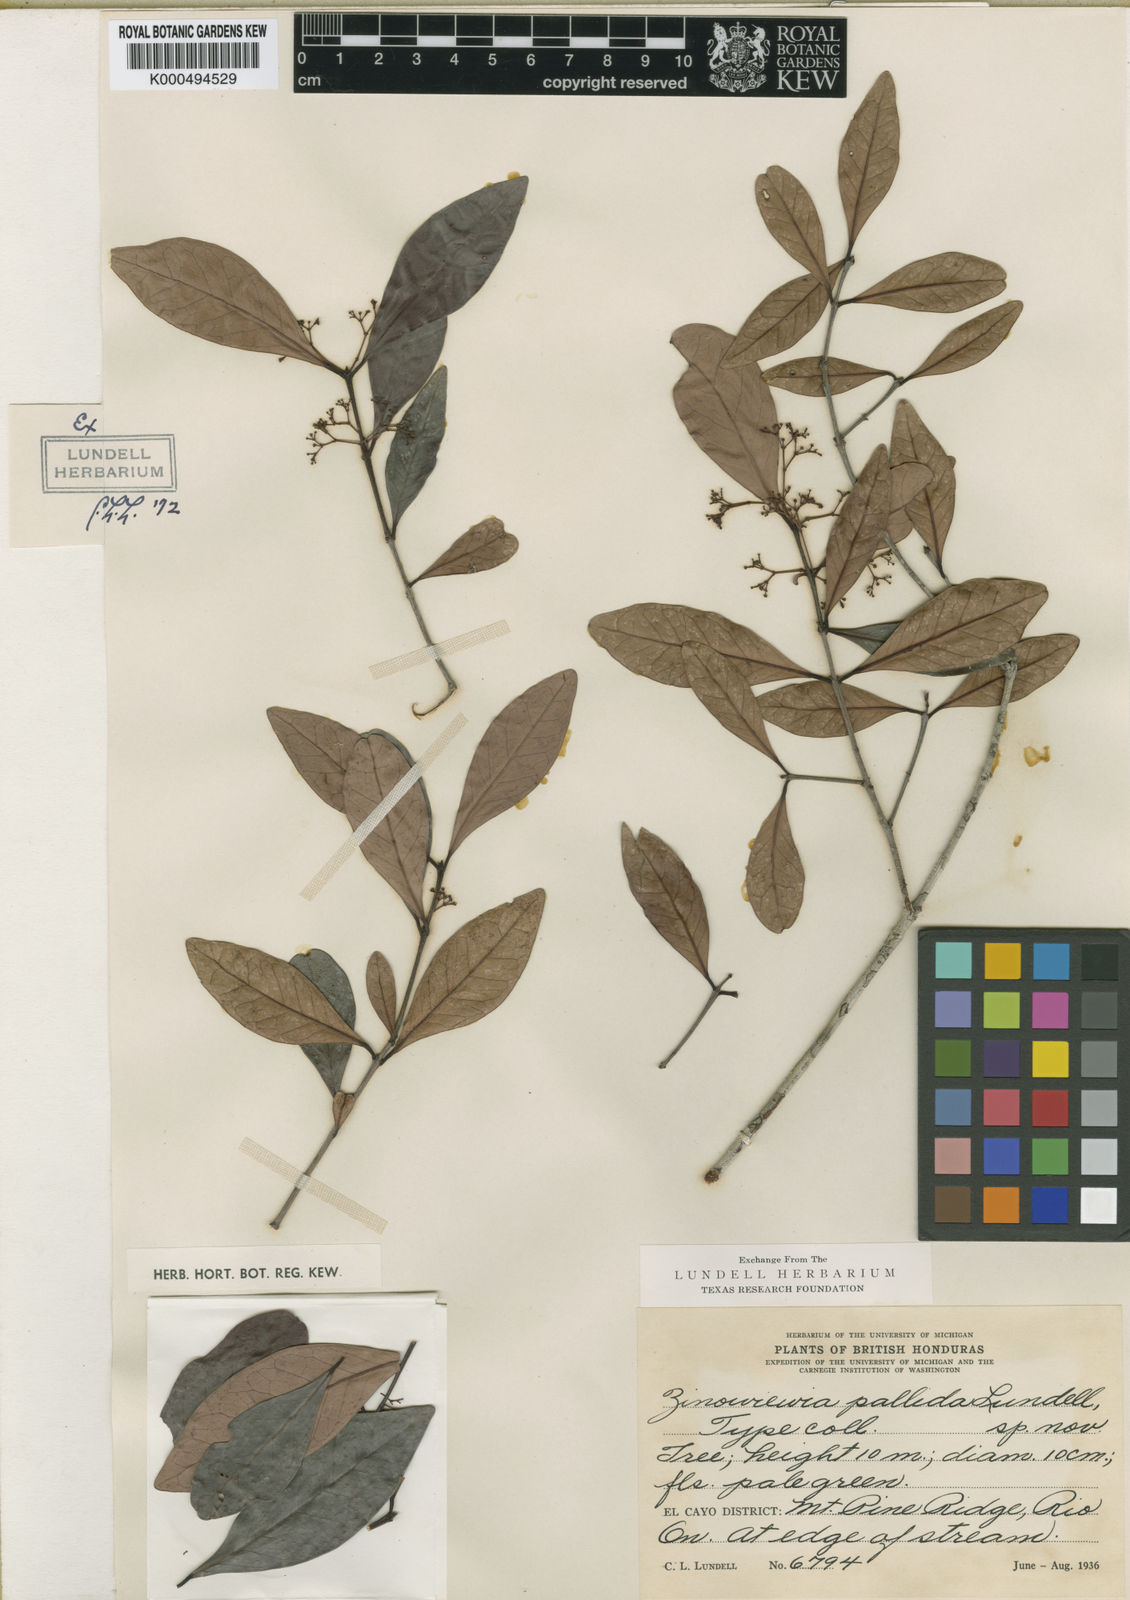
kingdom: Plantae
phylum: Tracheophyta
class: Magnoliopsida
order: Celastrales
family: Celastraceae
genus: Zinowiewia
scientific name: Zinowiewia pallida
